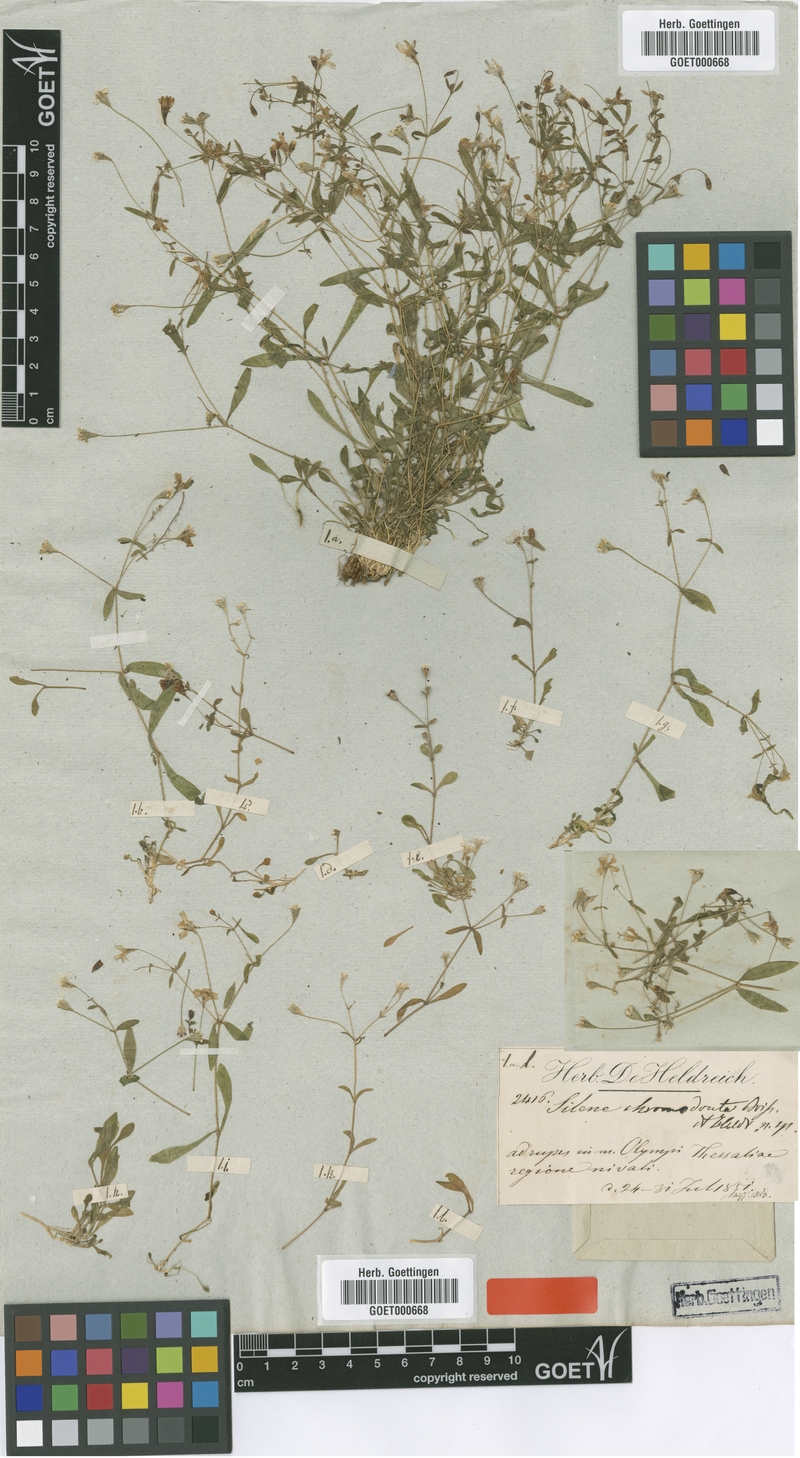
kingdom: Plantae
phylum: Tracheophyta
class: Magnoliopsida
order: Caryophyllales
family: Caryophyllaceae
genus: Heliosperma
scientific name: Heliosperma pusillum
